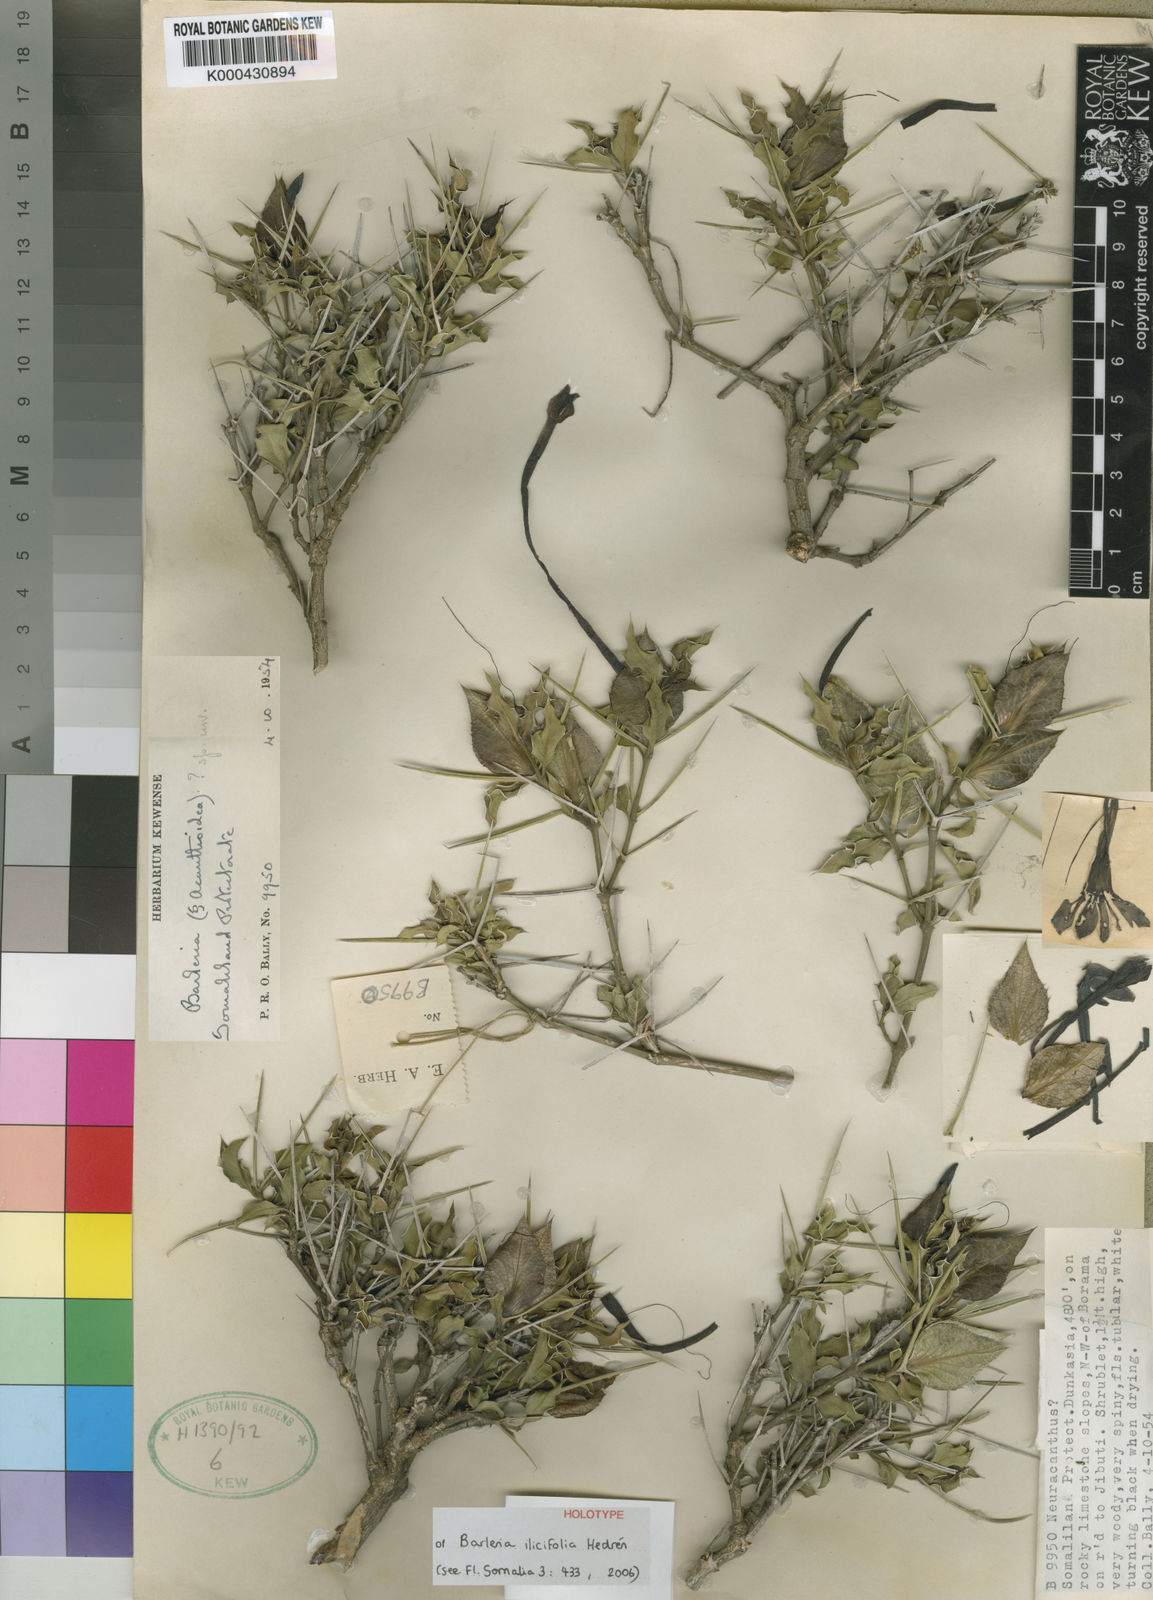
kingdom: Plantae
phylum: Tracheophyta
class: Magnoliopsida
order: Lamiales
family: Acanthaceae
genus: Barleria
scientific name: Barleria
